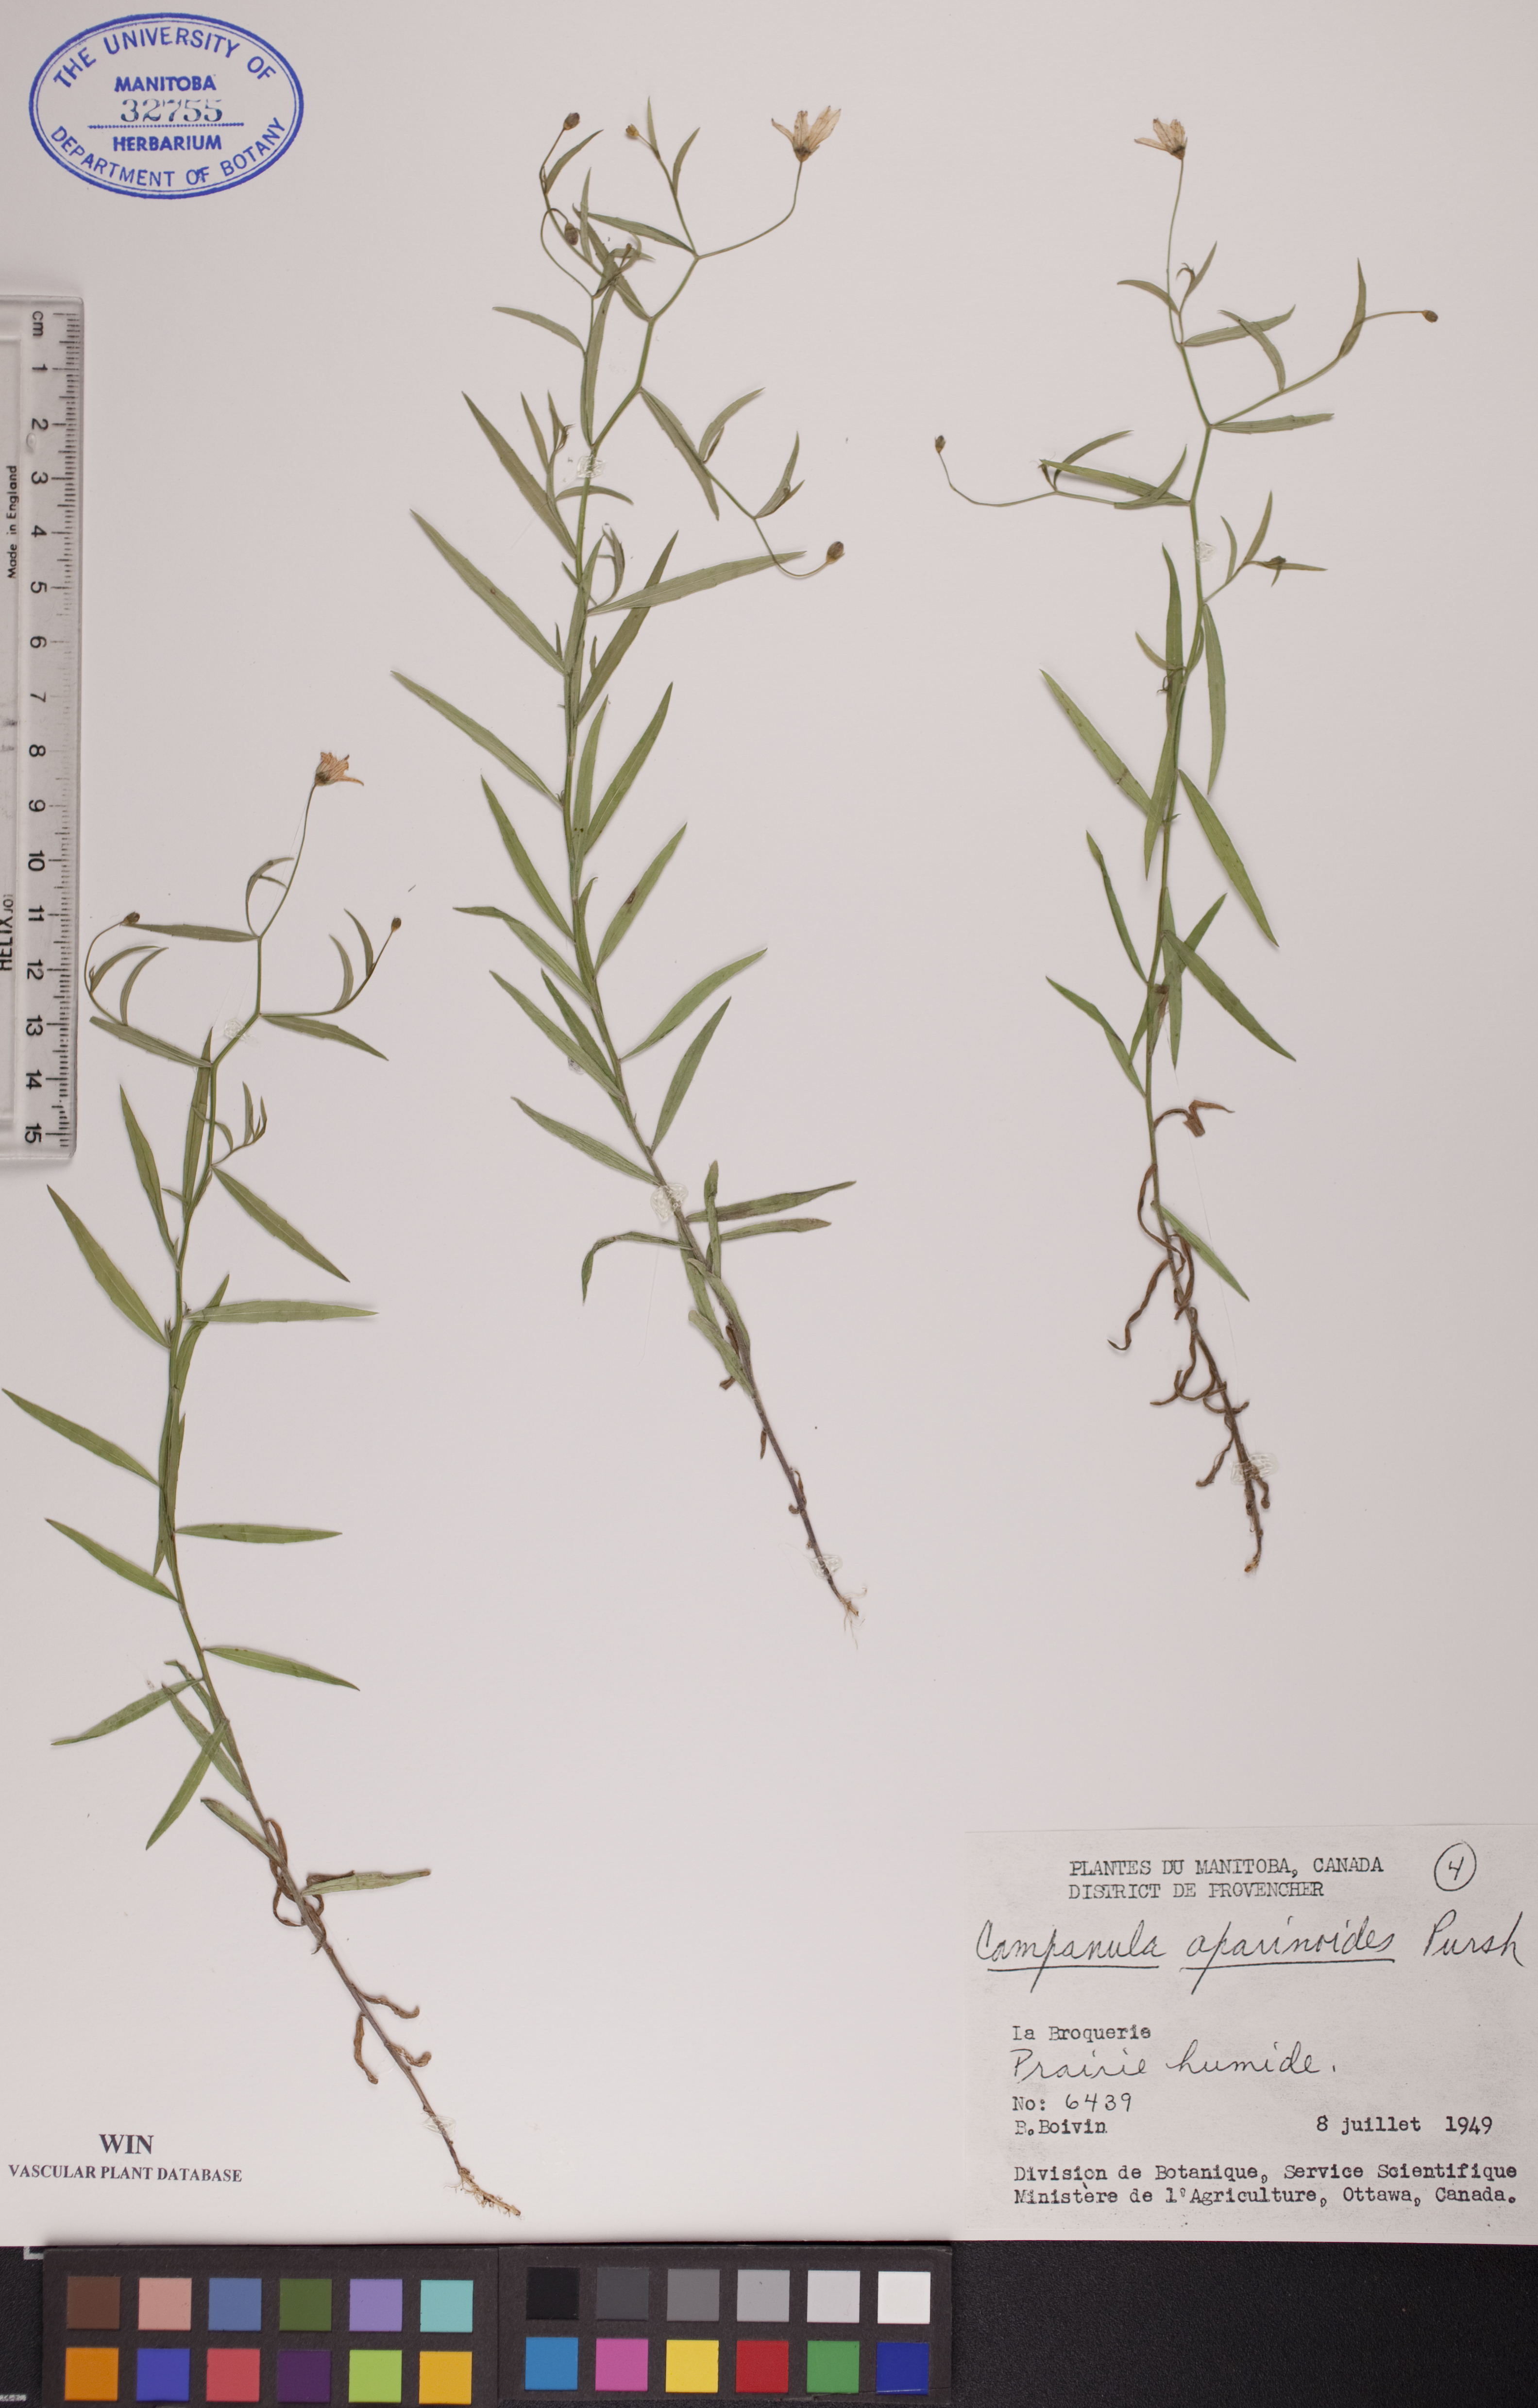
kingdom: Plantae
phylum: Tracheophyta
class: Magnoliopsida
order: Asterales
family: Campanulaceae
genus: Palustricodon
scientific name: Palustricodon aparinoides
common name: Bedstraw bellflower
